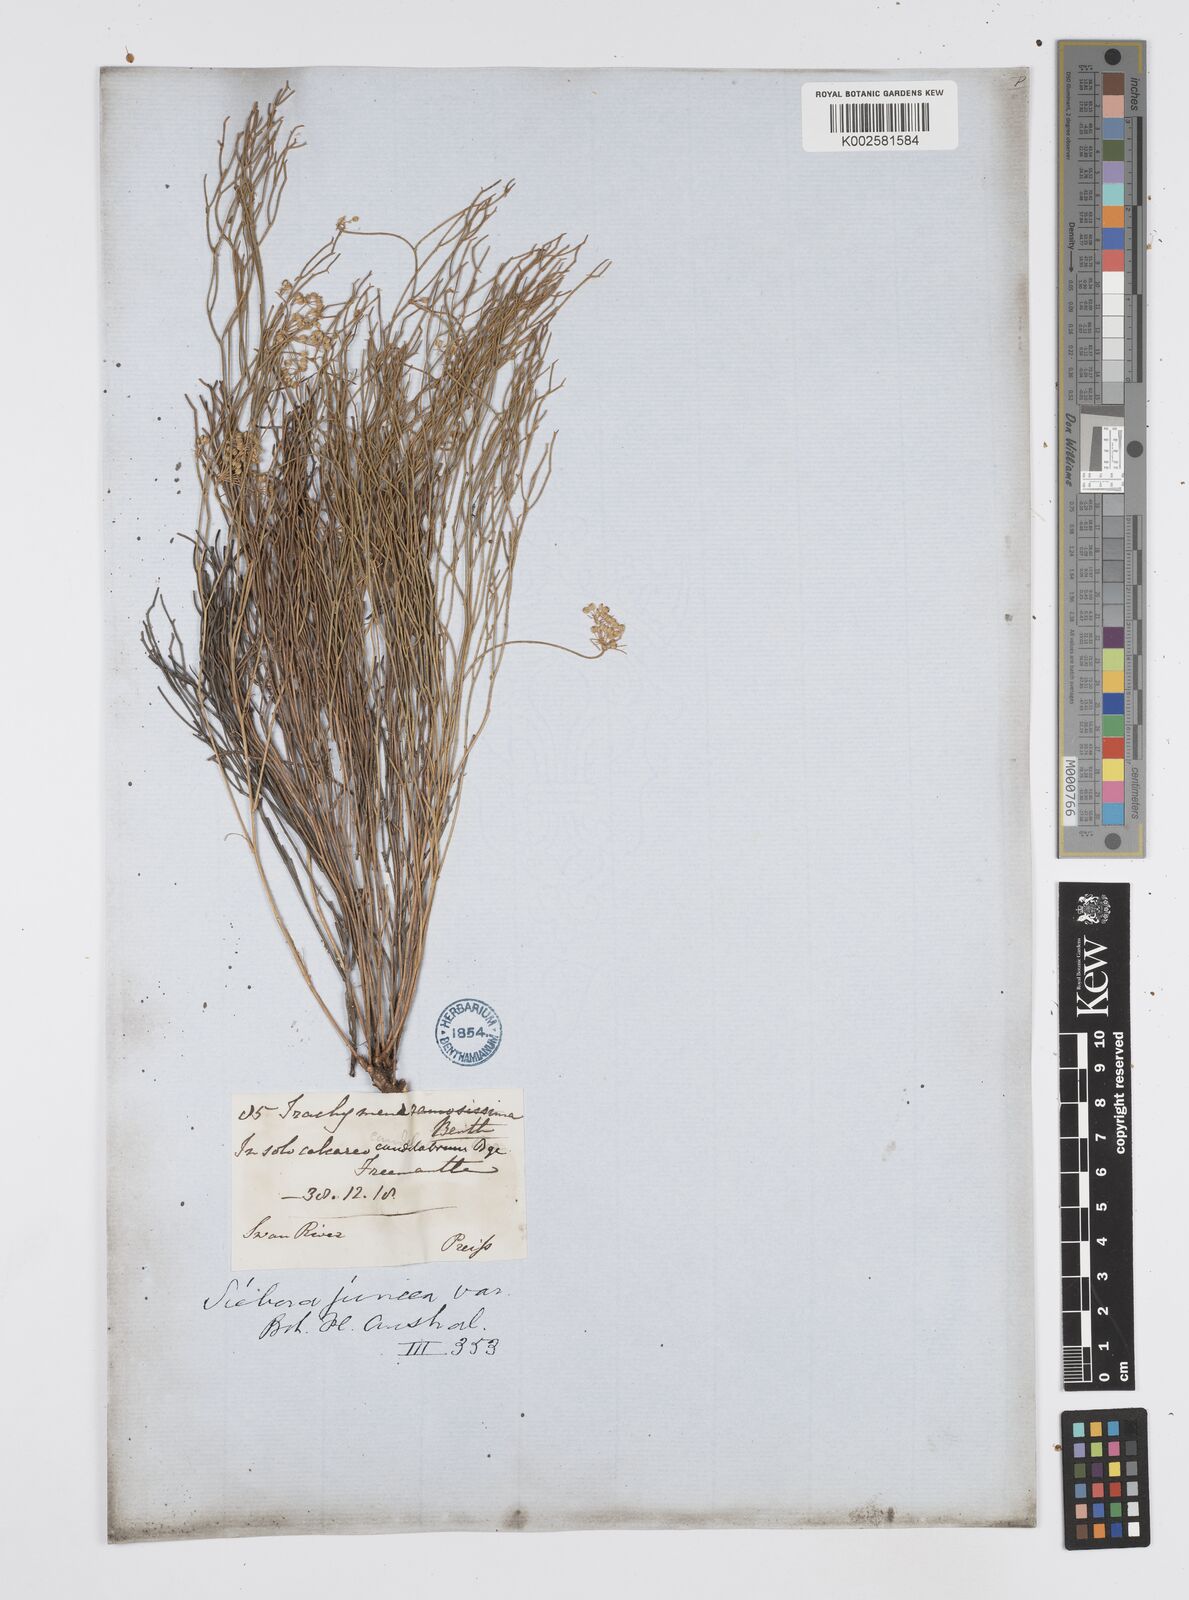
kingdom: Plantae
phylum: Tracheophyta
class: Magnoliopsida
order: Apiales
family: Apiaceae
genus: Platysace
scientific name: Platysace ramosissima
